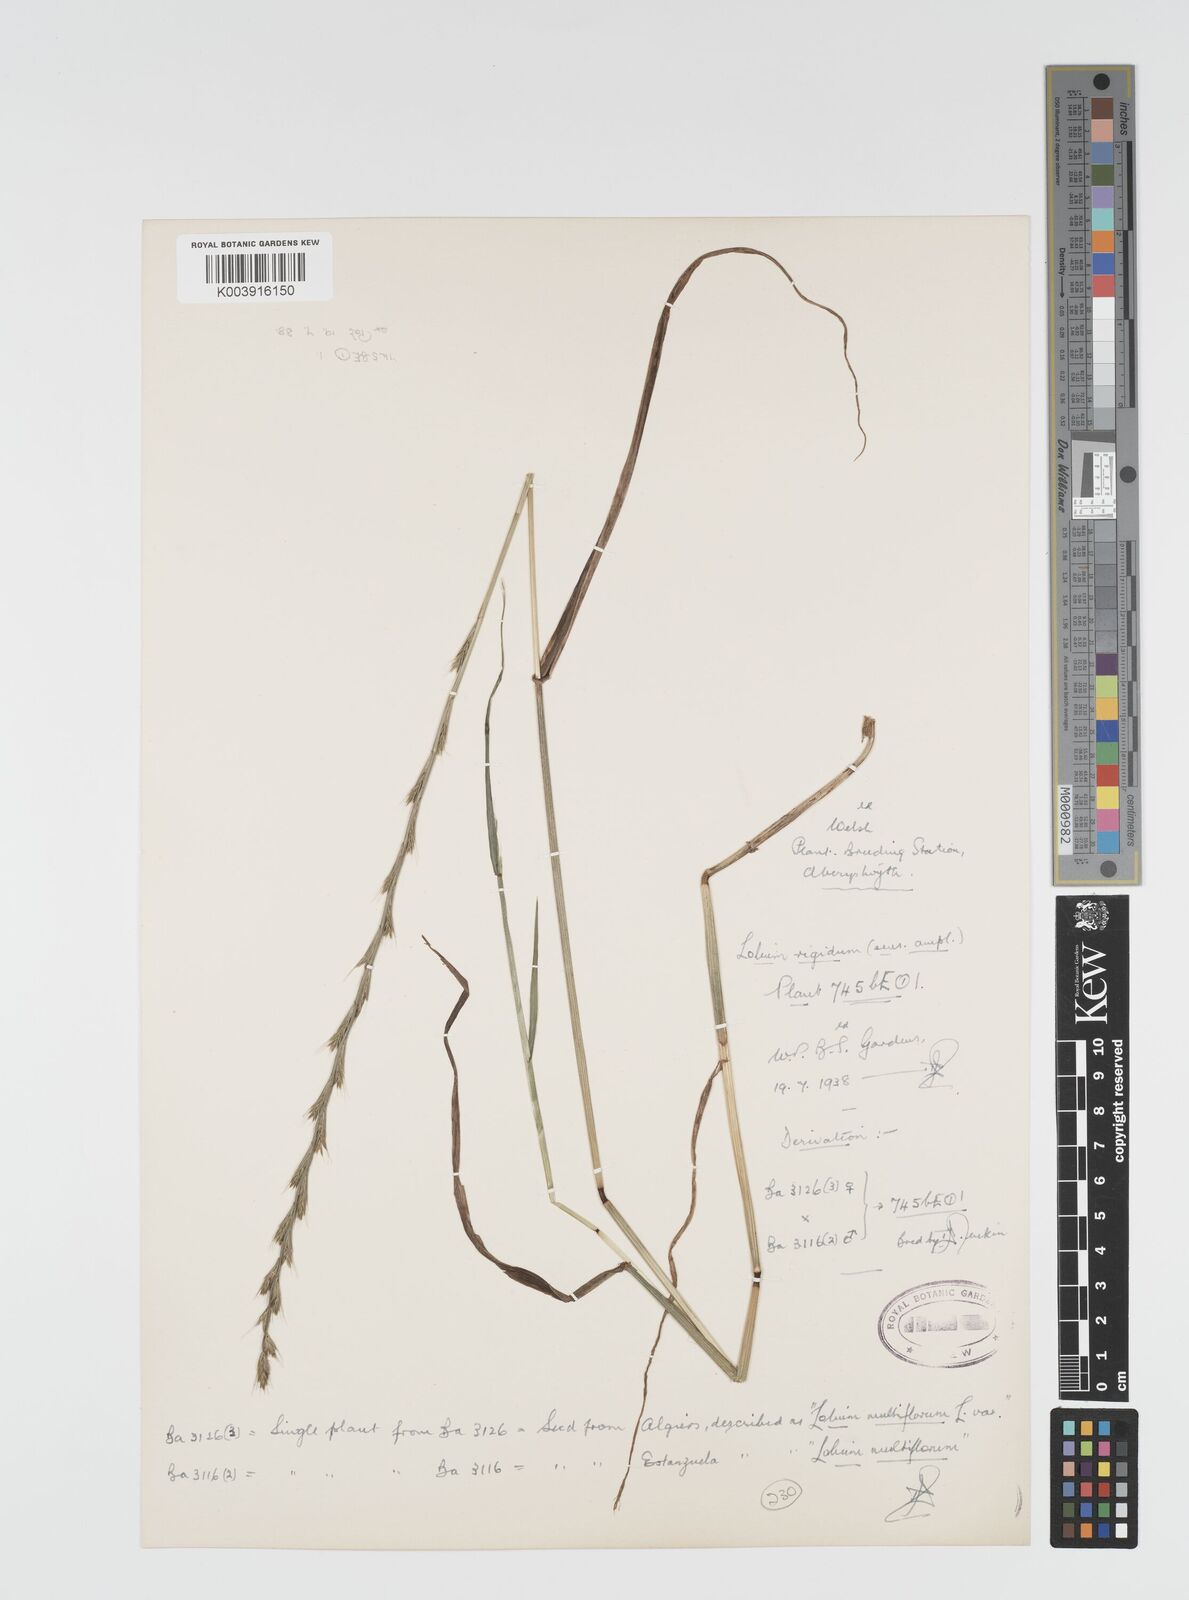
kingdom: Plantae
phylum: Tracheophyta
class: Liliopsida
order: Poales
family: Poaceae
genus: Lolium
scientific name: Lolium rigidum
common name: Wimmera ryegrass
